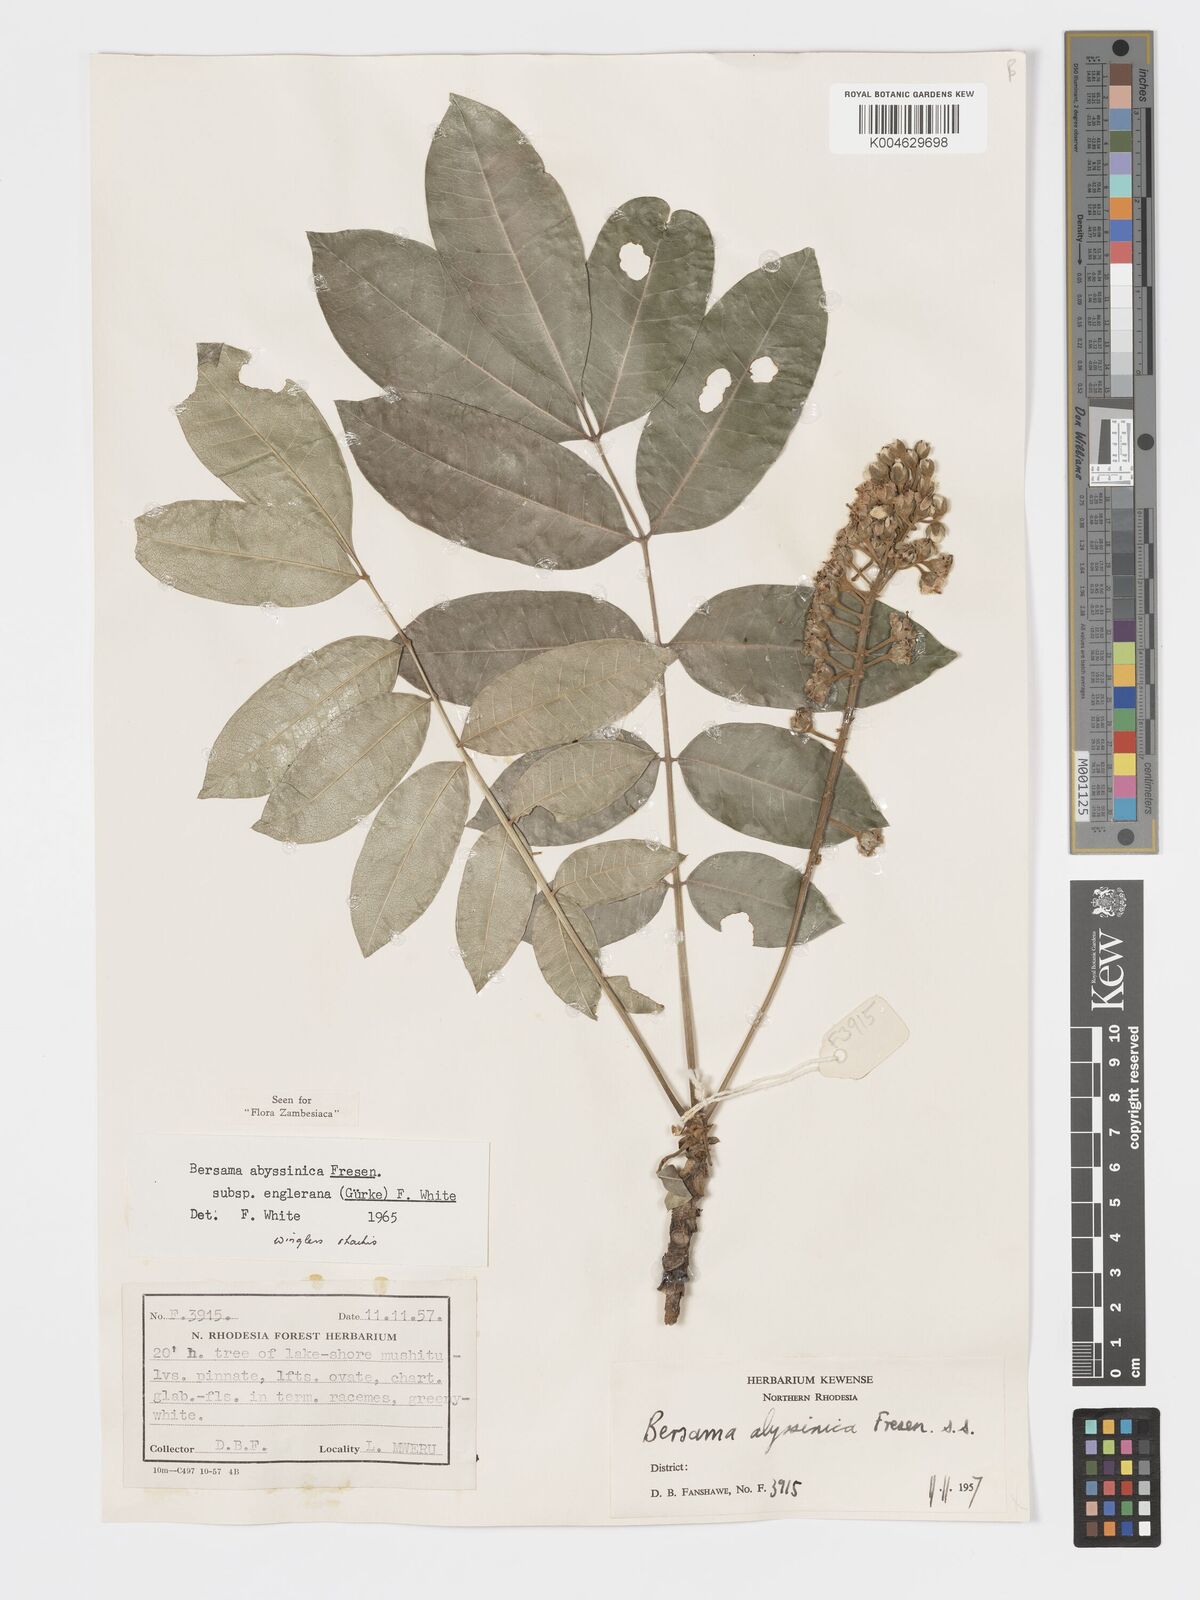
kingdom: Plantae
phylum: Tracheophyta
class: Magnoliopsida
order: Geraniales
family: Melianthaceae
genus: Bersama
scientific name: Bersama abyssinica
